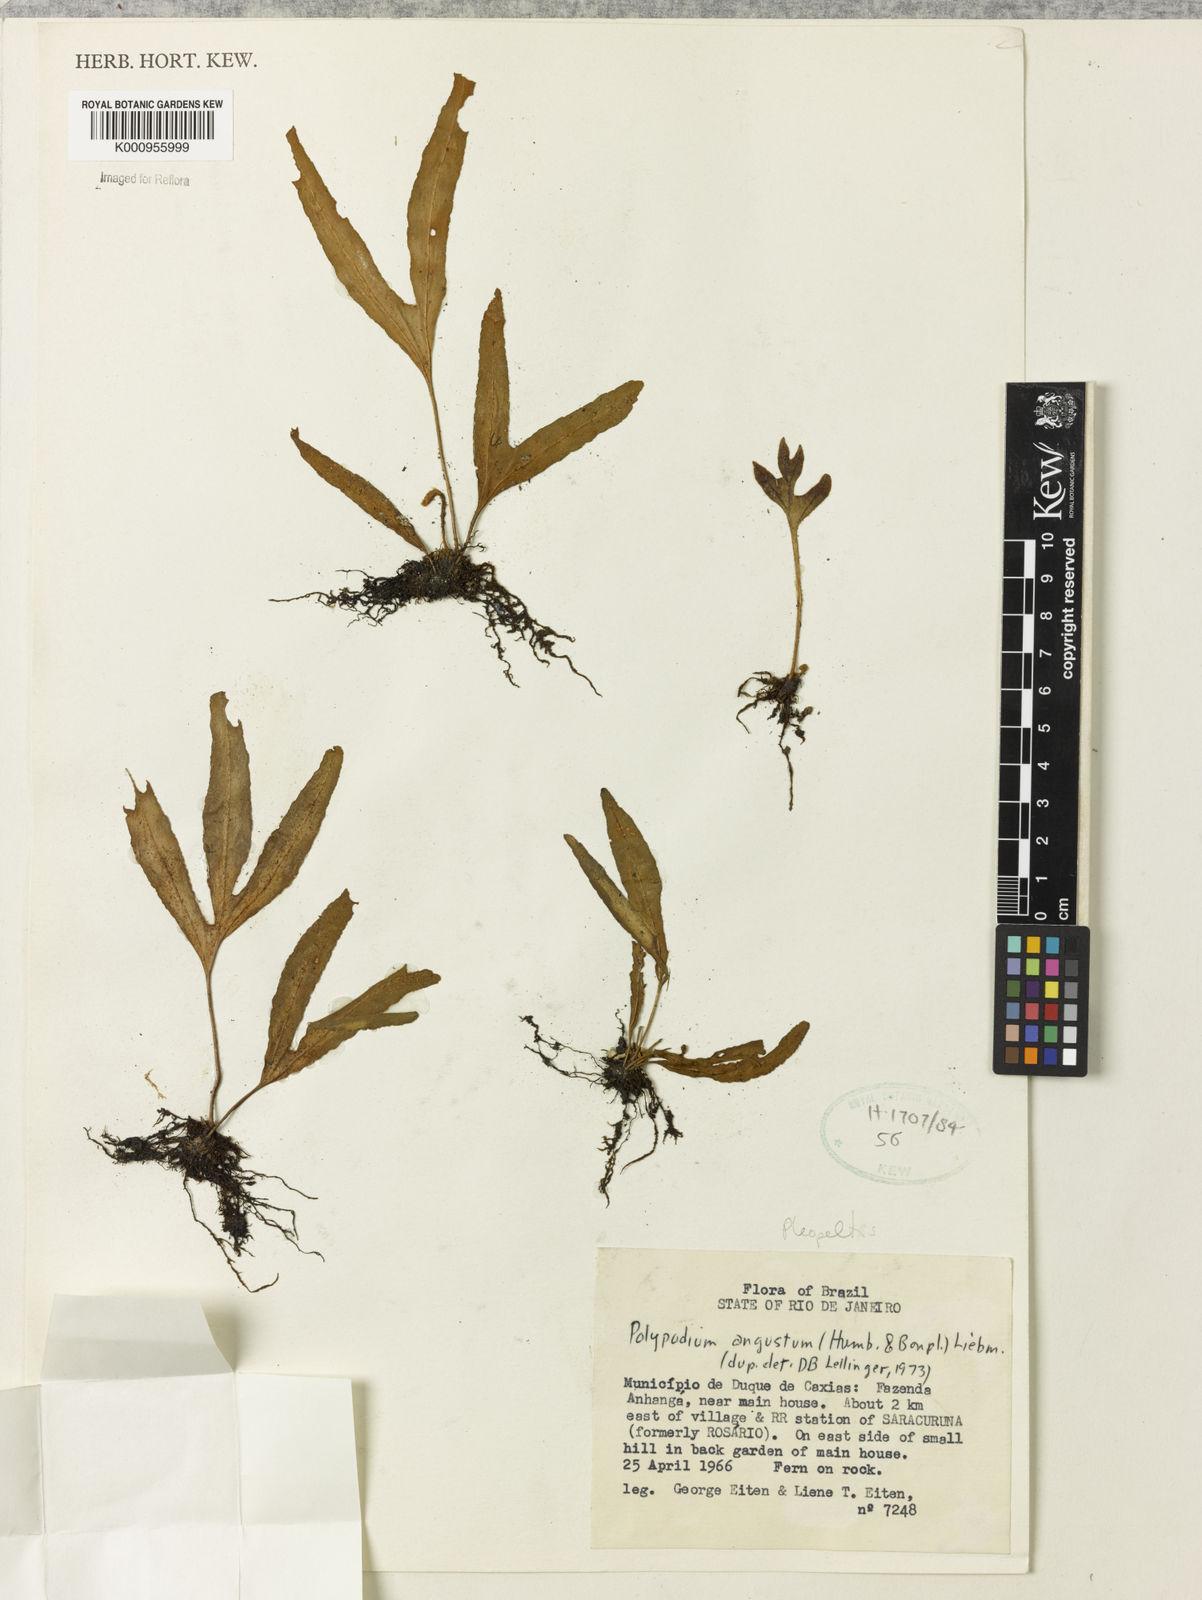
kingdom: Plantae
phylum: Tracheophyta
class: Polypodiopsida
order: Polypodiales
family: Polypodiaceae
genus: Pleopeltis
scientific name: Pleopeltis angusta
